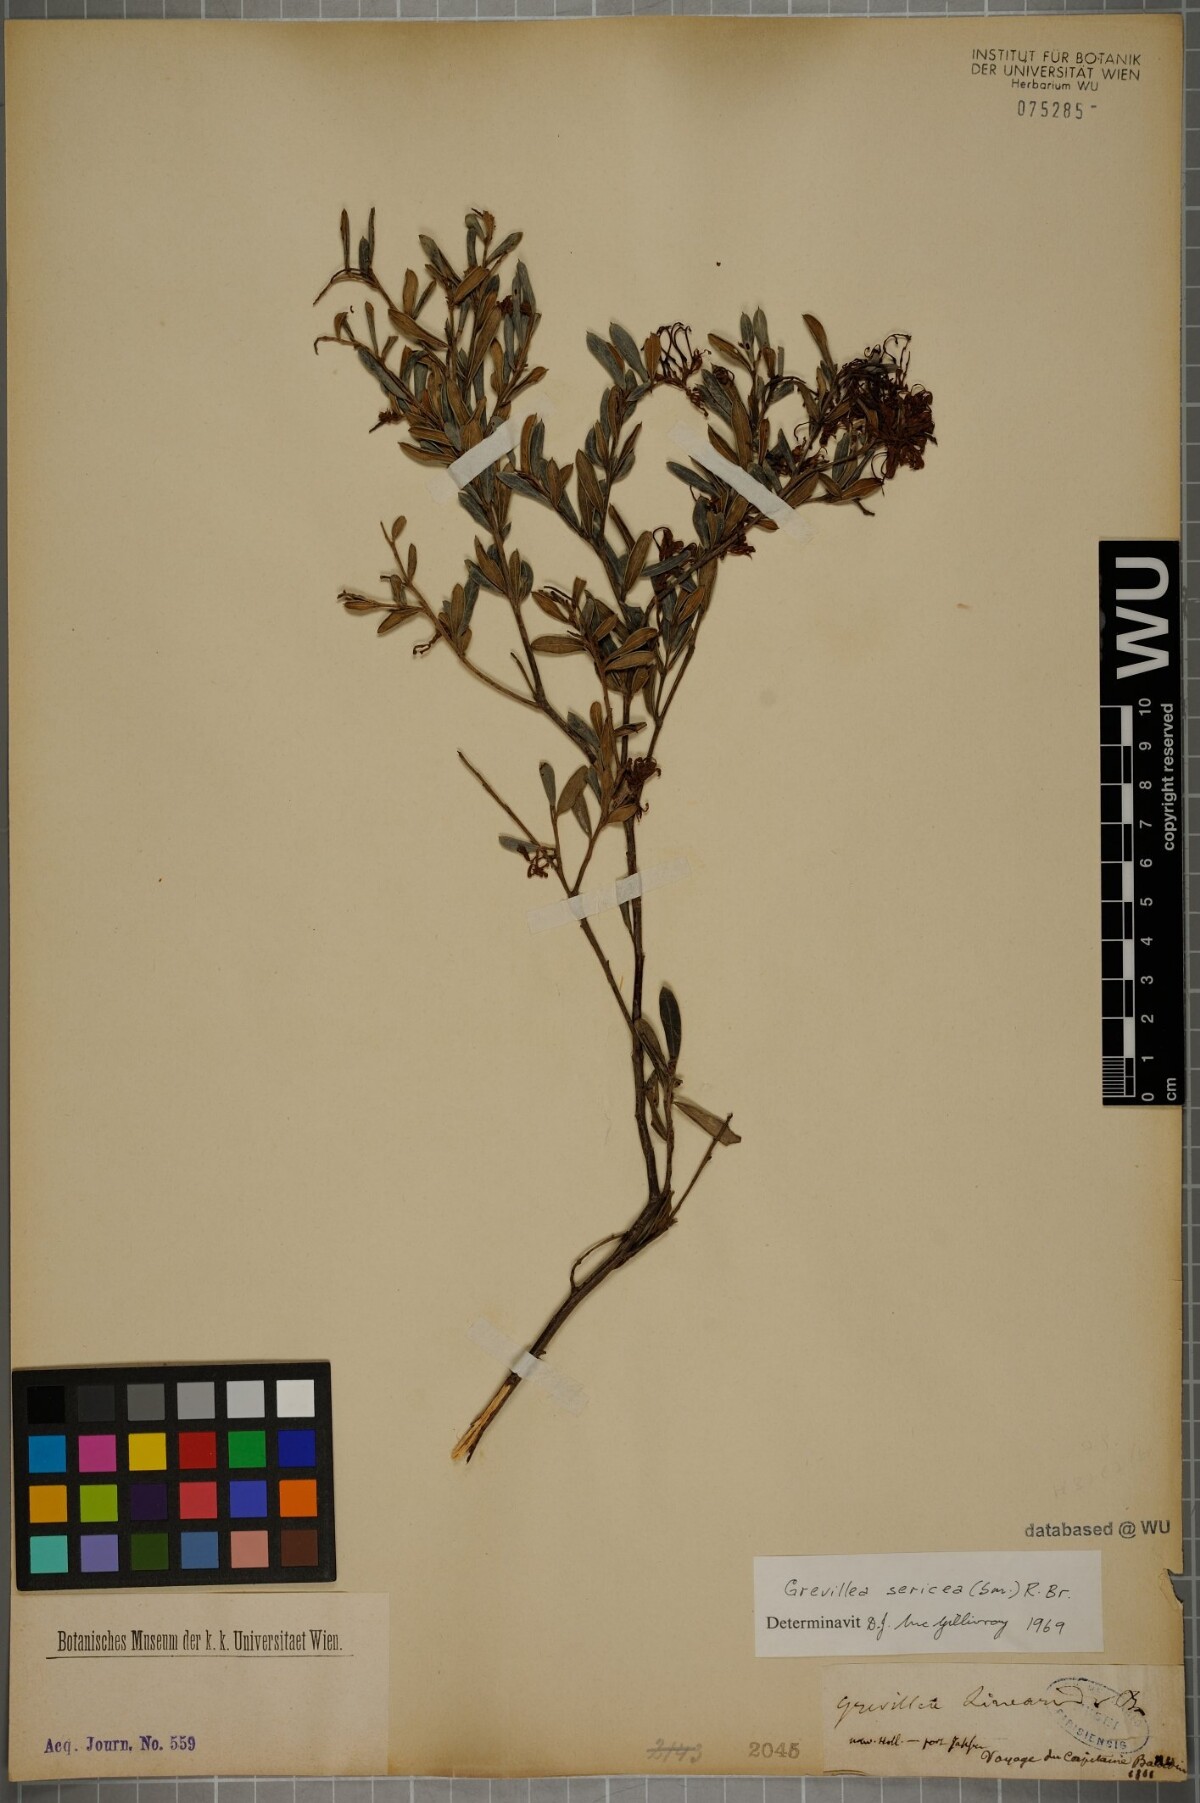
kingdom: Plantae
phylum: Tracheophyta
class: Magnoliopsida
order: Proteales
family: Proteaceae
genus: Grevillea
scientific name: Grevillea sericea
